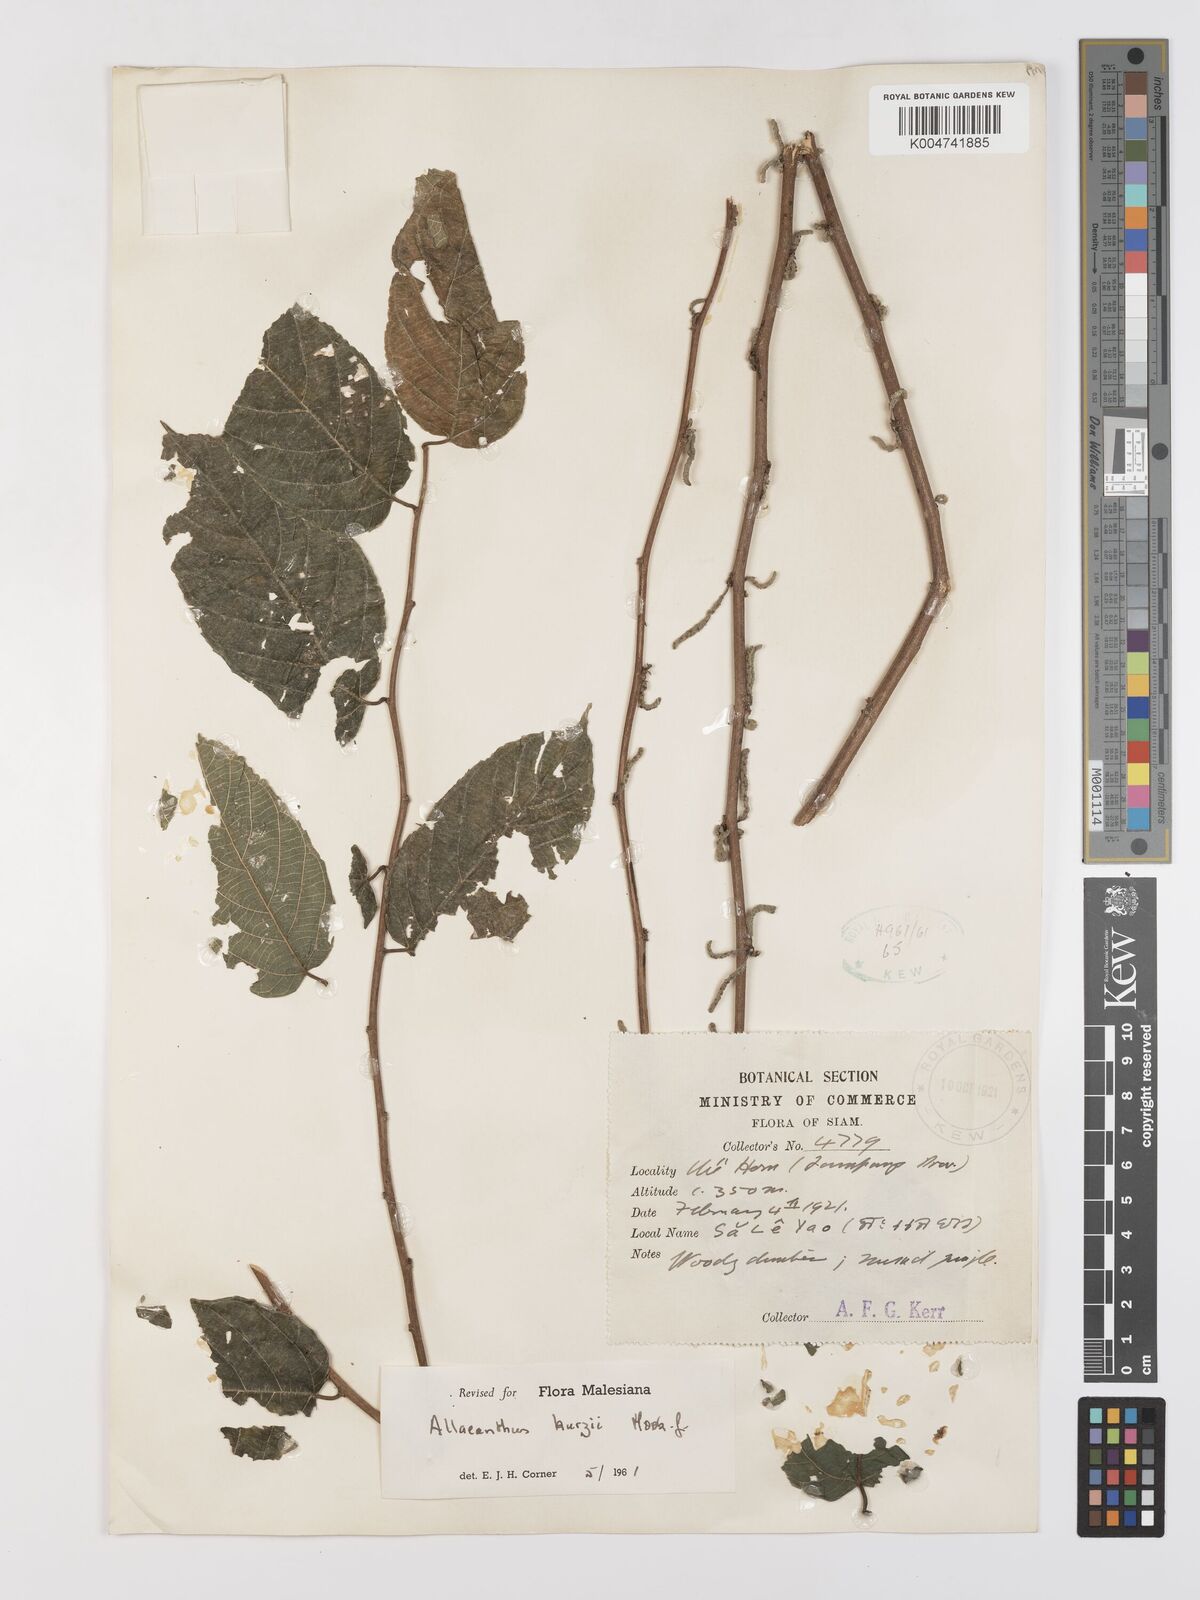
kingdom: Plantae
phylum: Tracheophyta
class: Magnoliopsida
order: Rosales
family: Moraceae
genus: Allaeanthus
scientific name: Allaeanthus kurzii
